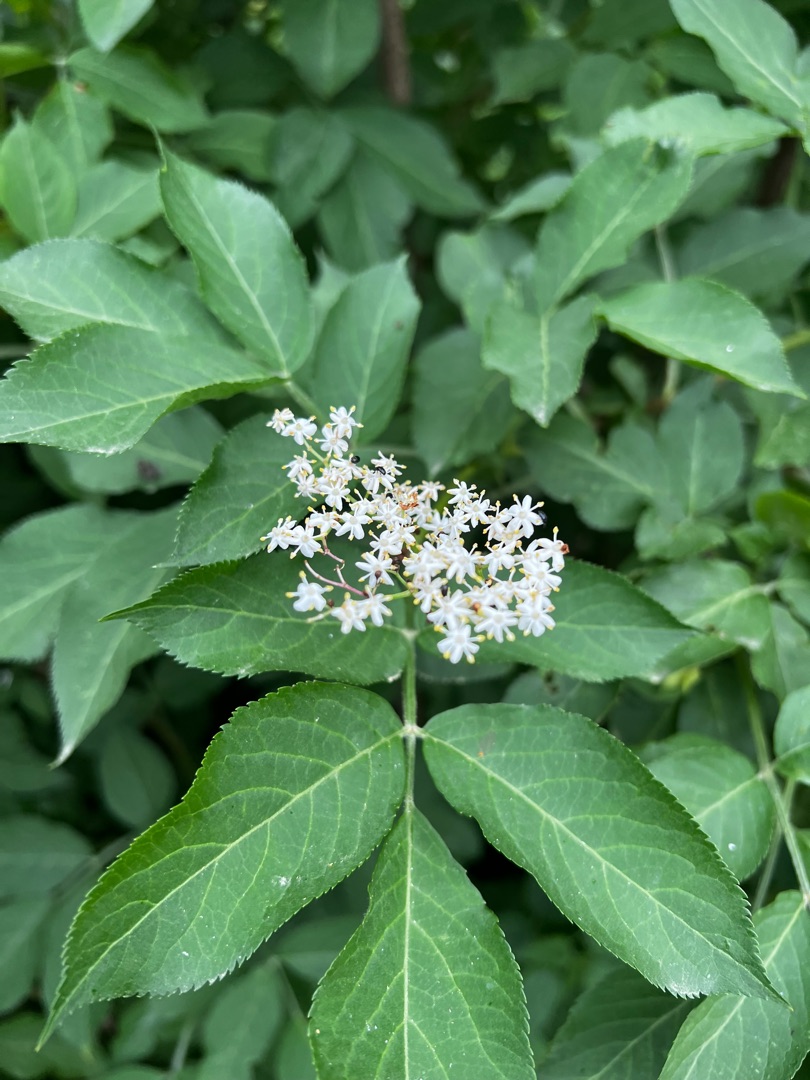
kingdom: Plantae
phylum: Tracheophyta
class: Magnoliopsida
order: Dipsacales
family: Viburnaceae
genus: Sambucus
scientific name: Sambucus nigra
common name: Almindelig hyld
